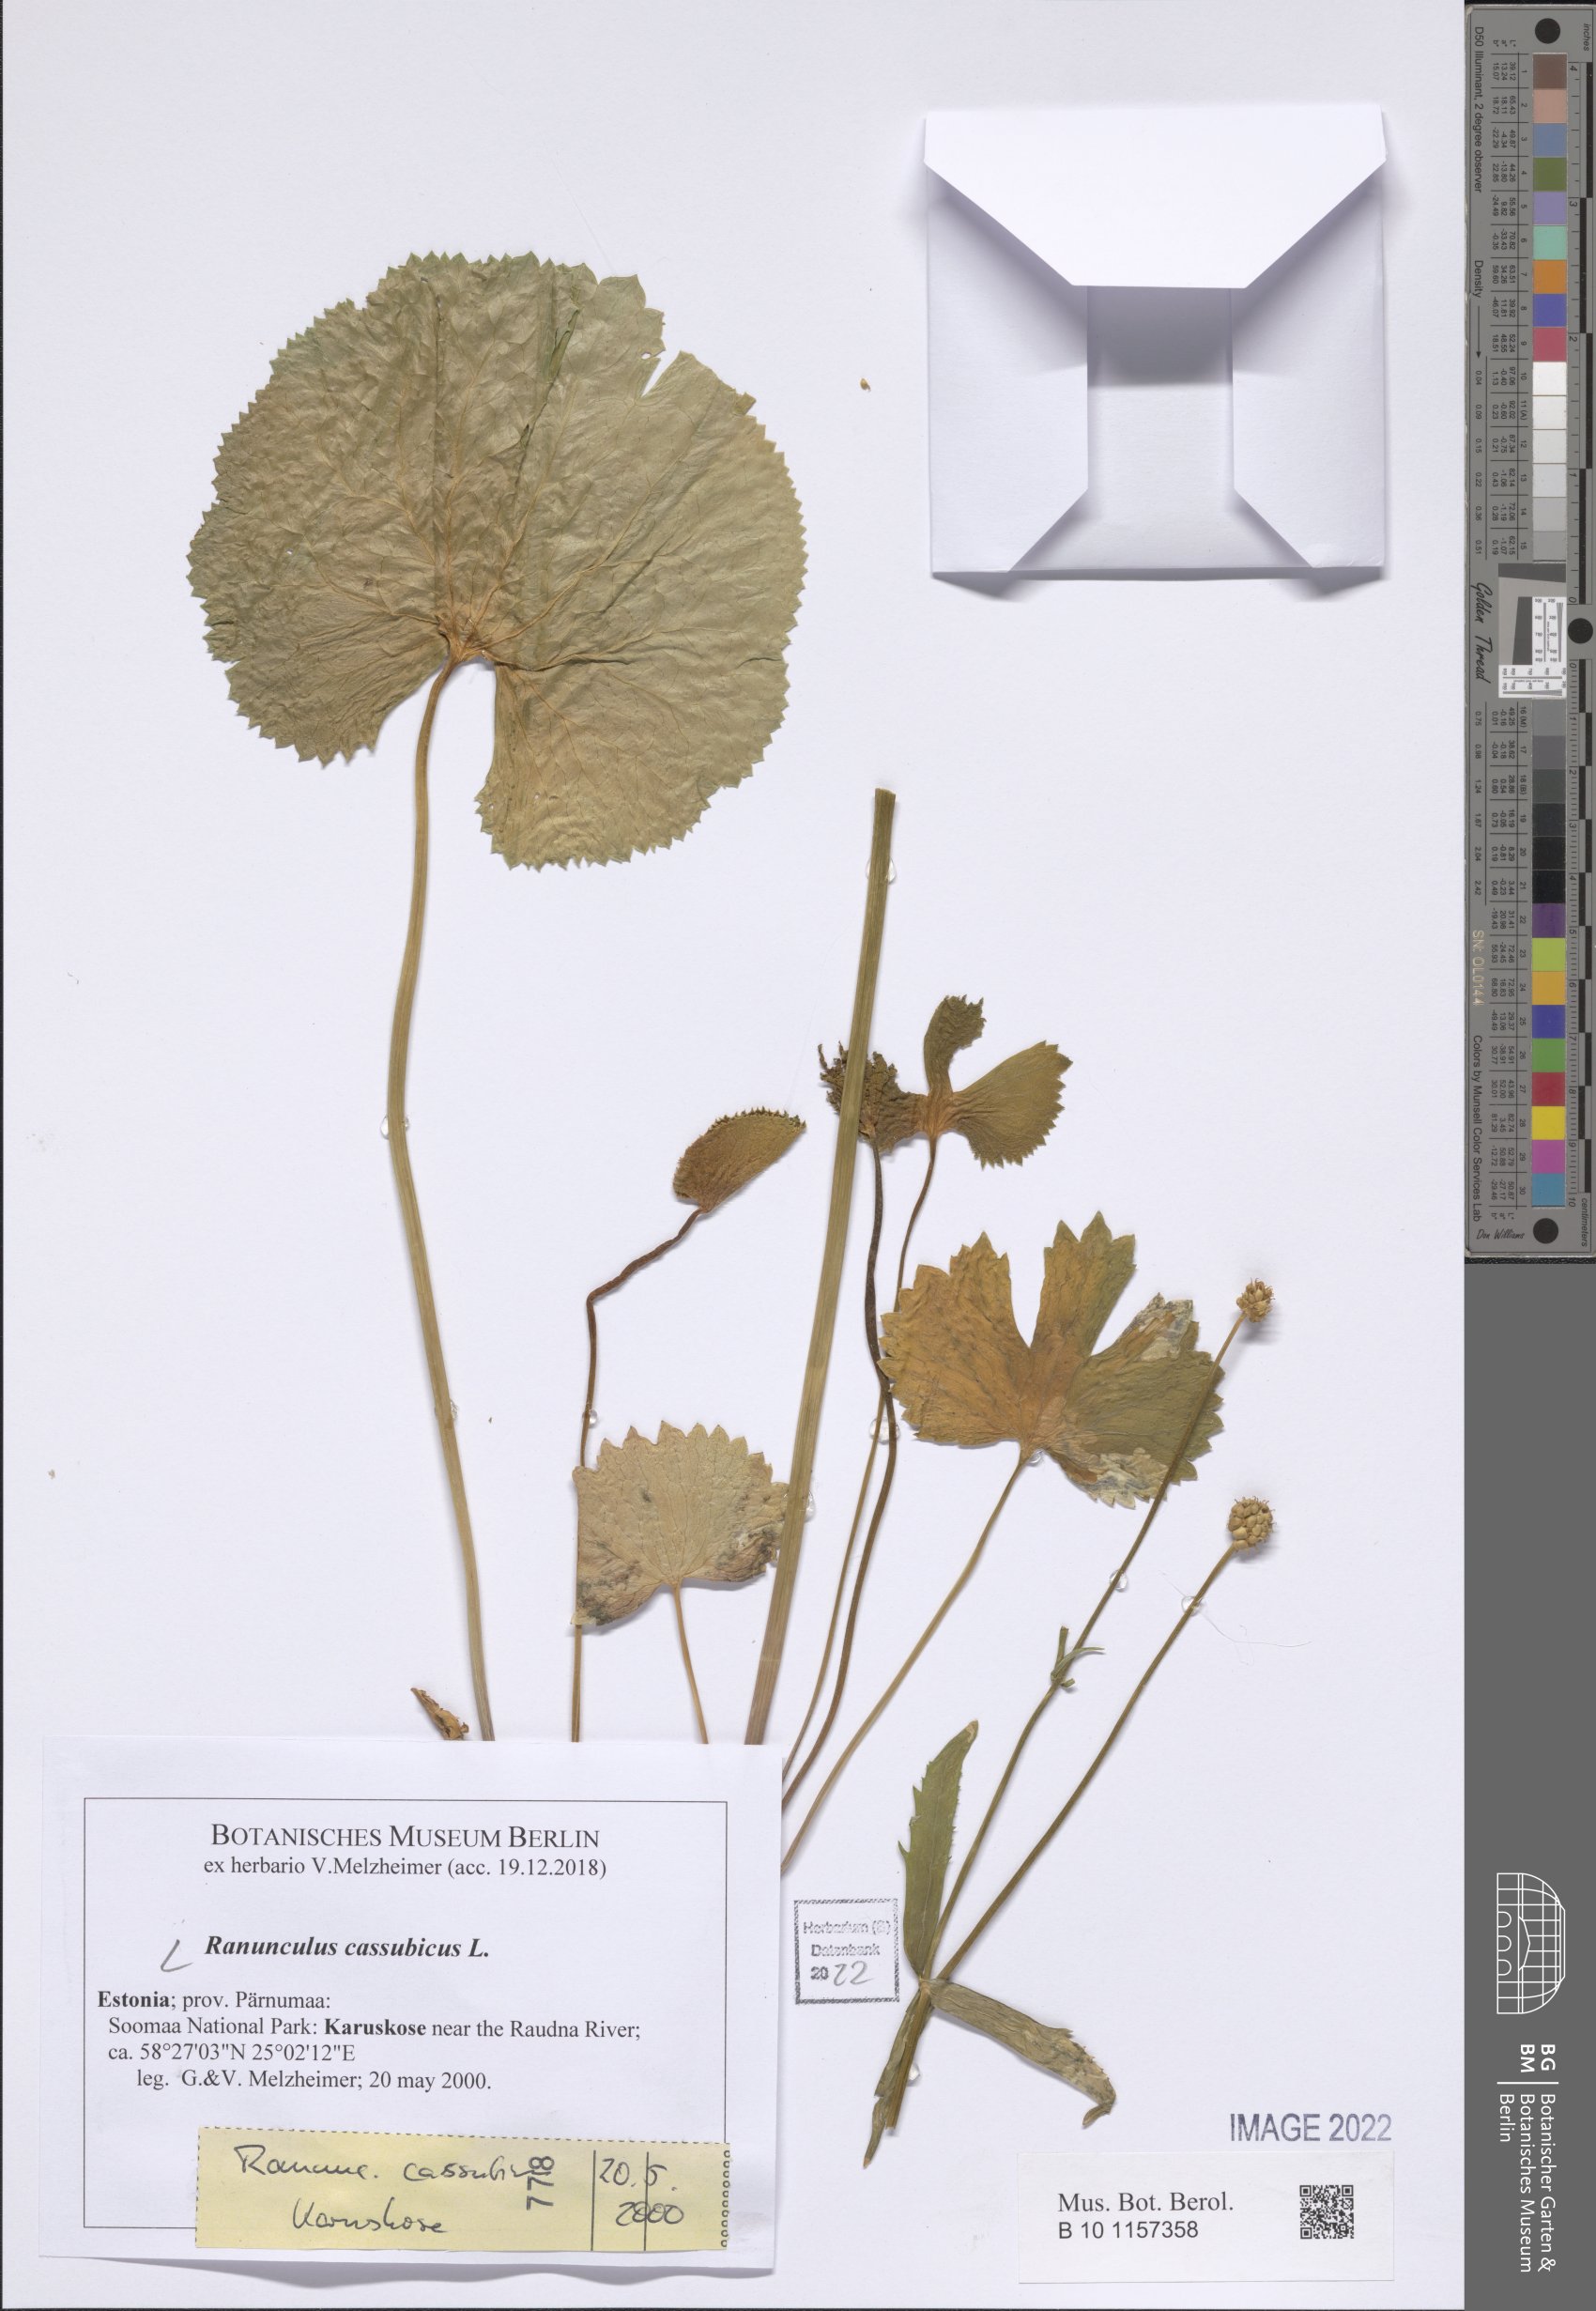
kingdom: Plantae
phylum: Tracheophyta
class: Magnoliopsida
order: Ranunculales
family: Ranunculaceae
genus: Ranunculus
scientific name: Ranunculus cassubicus
